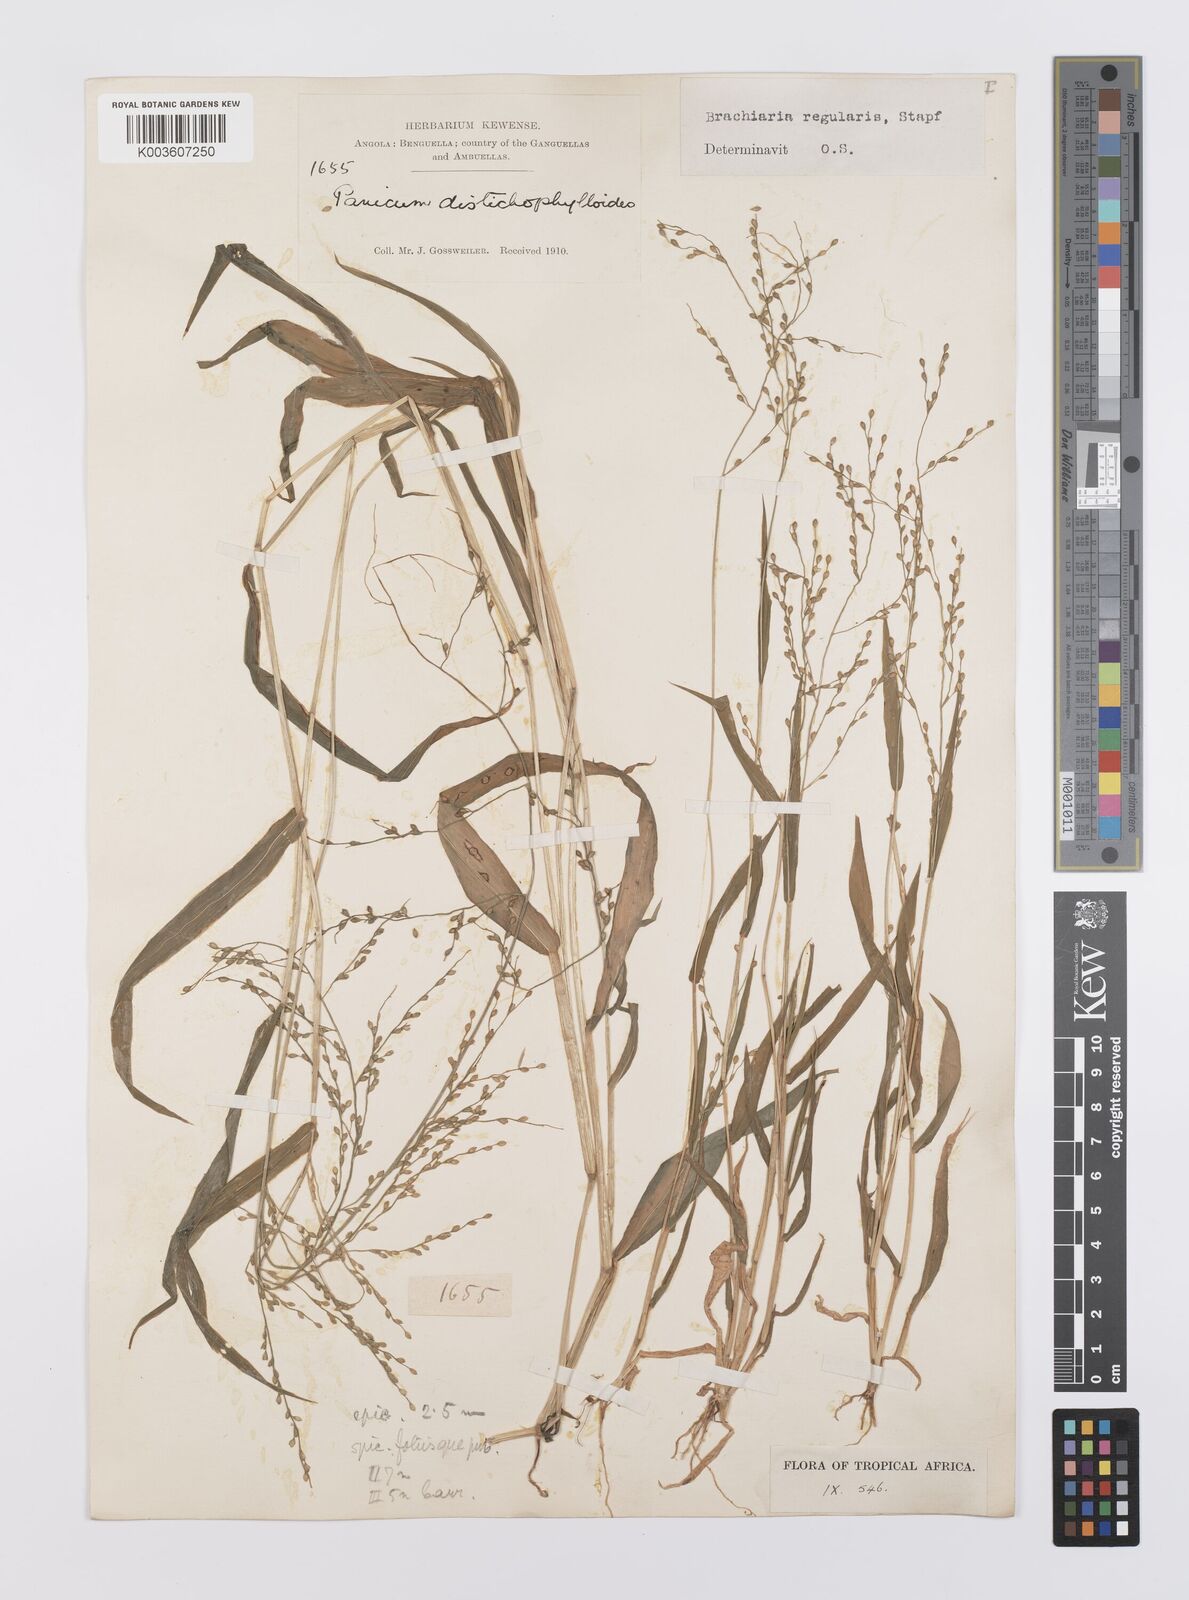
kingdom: Plantae
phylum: Tracheophyta
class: Liliopsida
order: Poales
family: Poaceae
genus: Urochloa
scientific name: Urochloa deflexa
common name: Guinea millet
